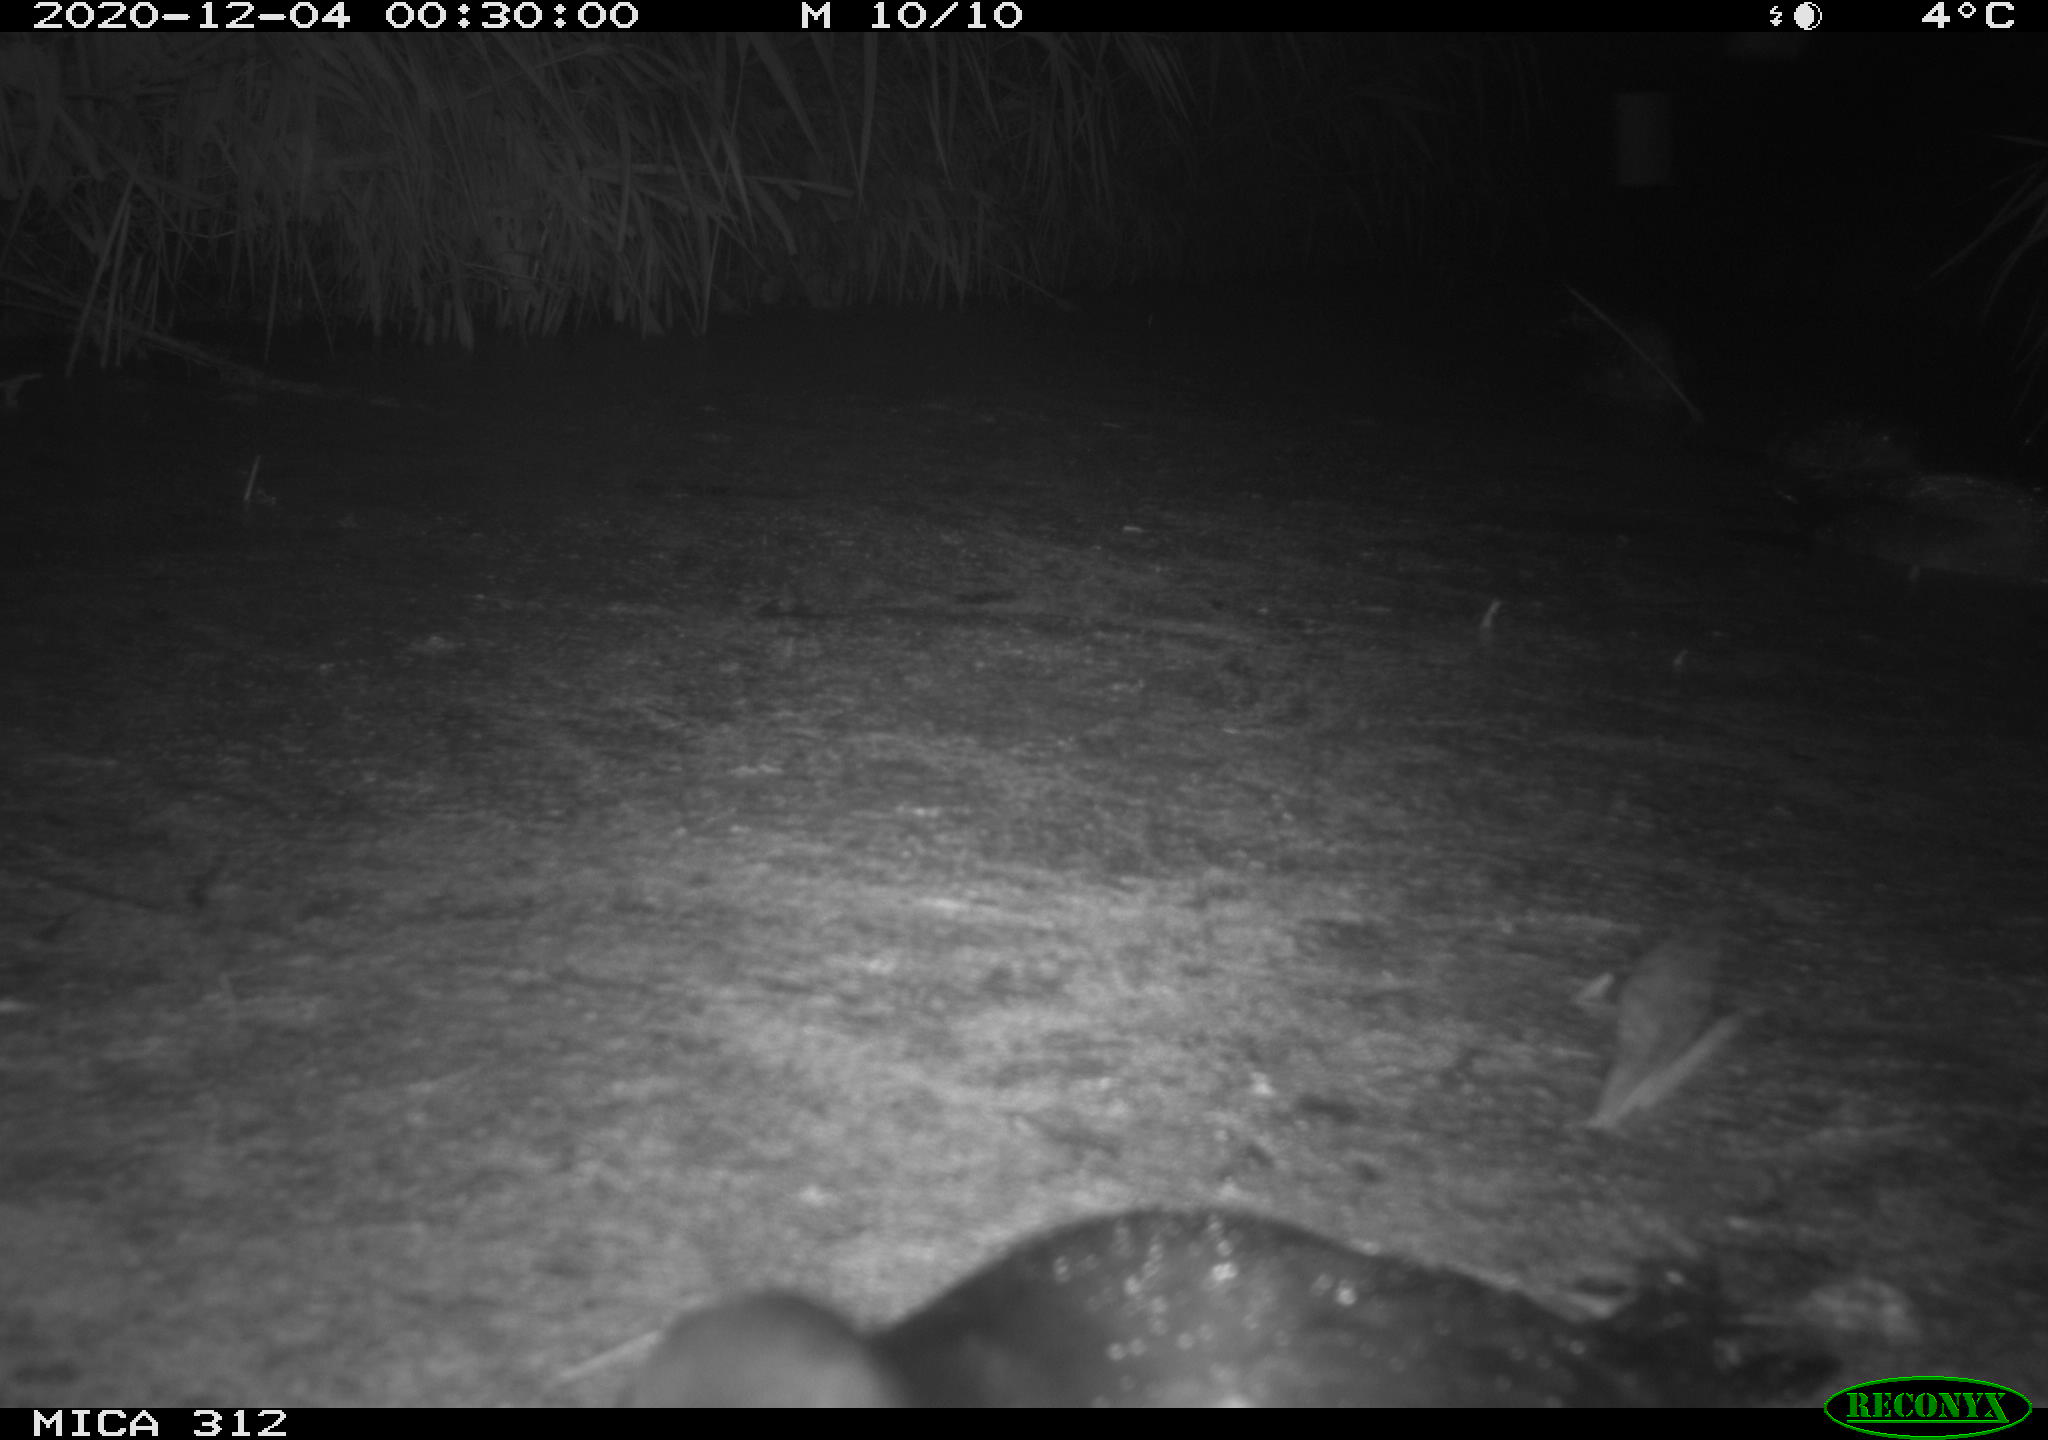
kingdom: Animalia
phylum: Chordata
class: Aves
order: Anseriformes
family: Anatidae
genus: Anas
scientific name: Anas
